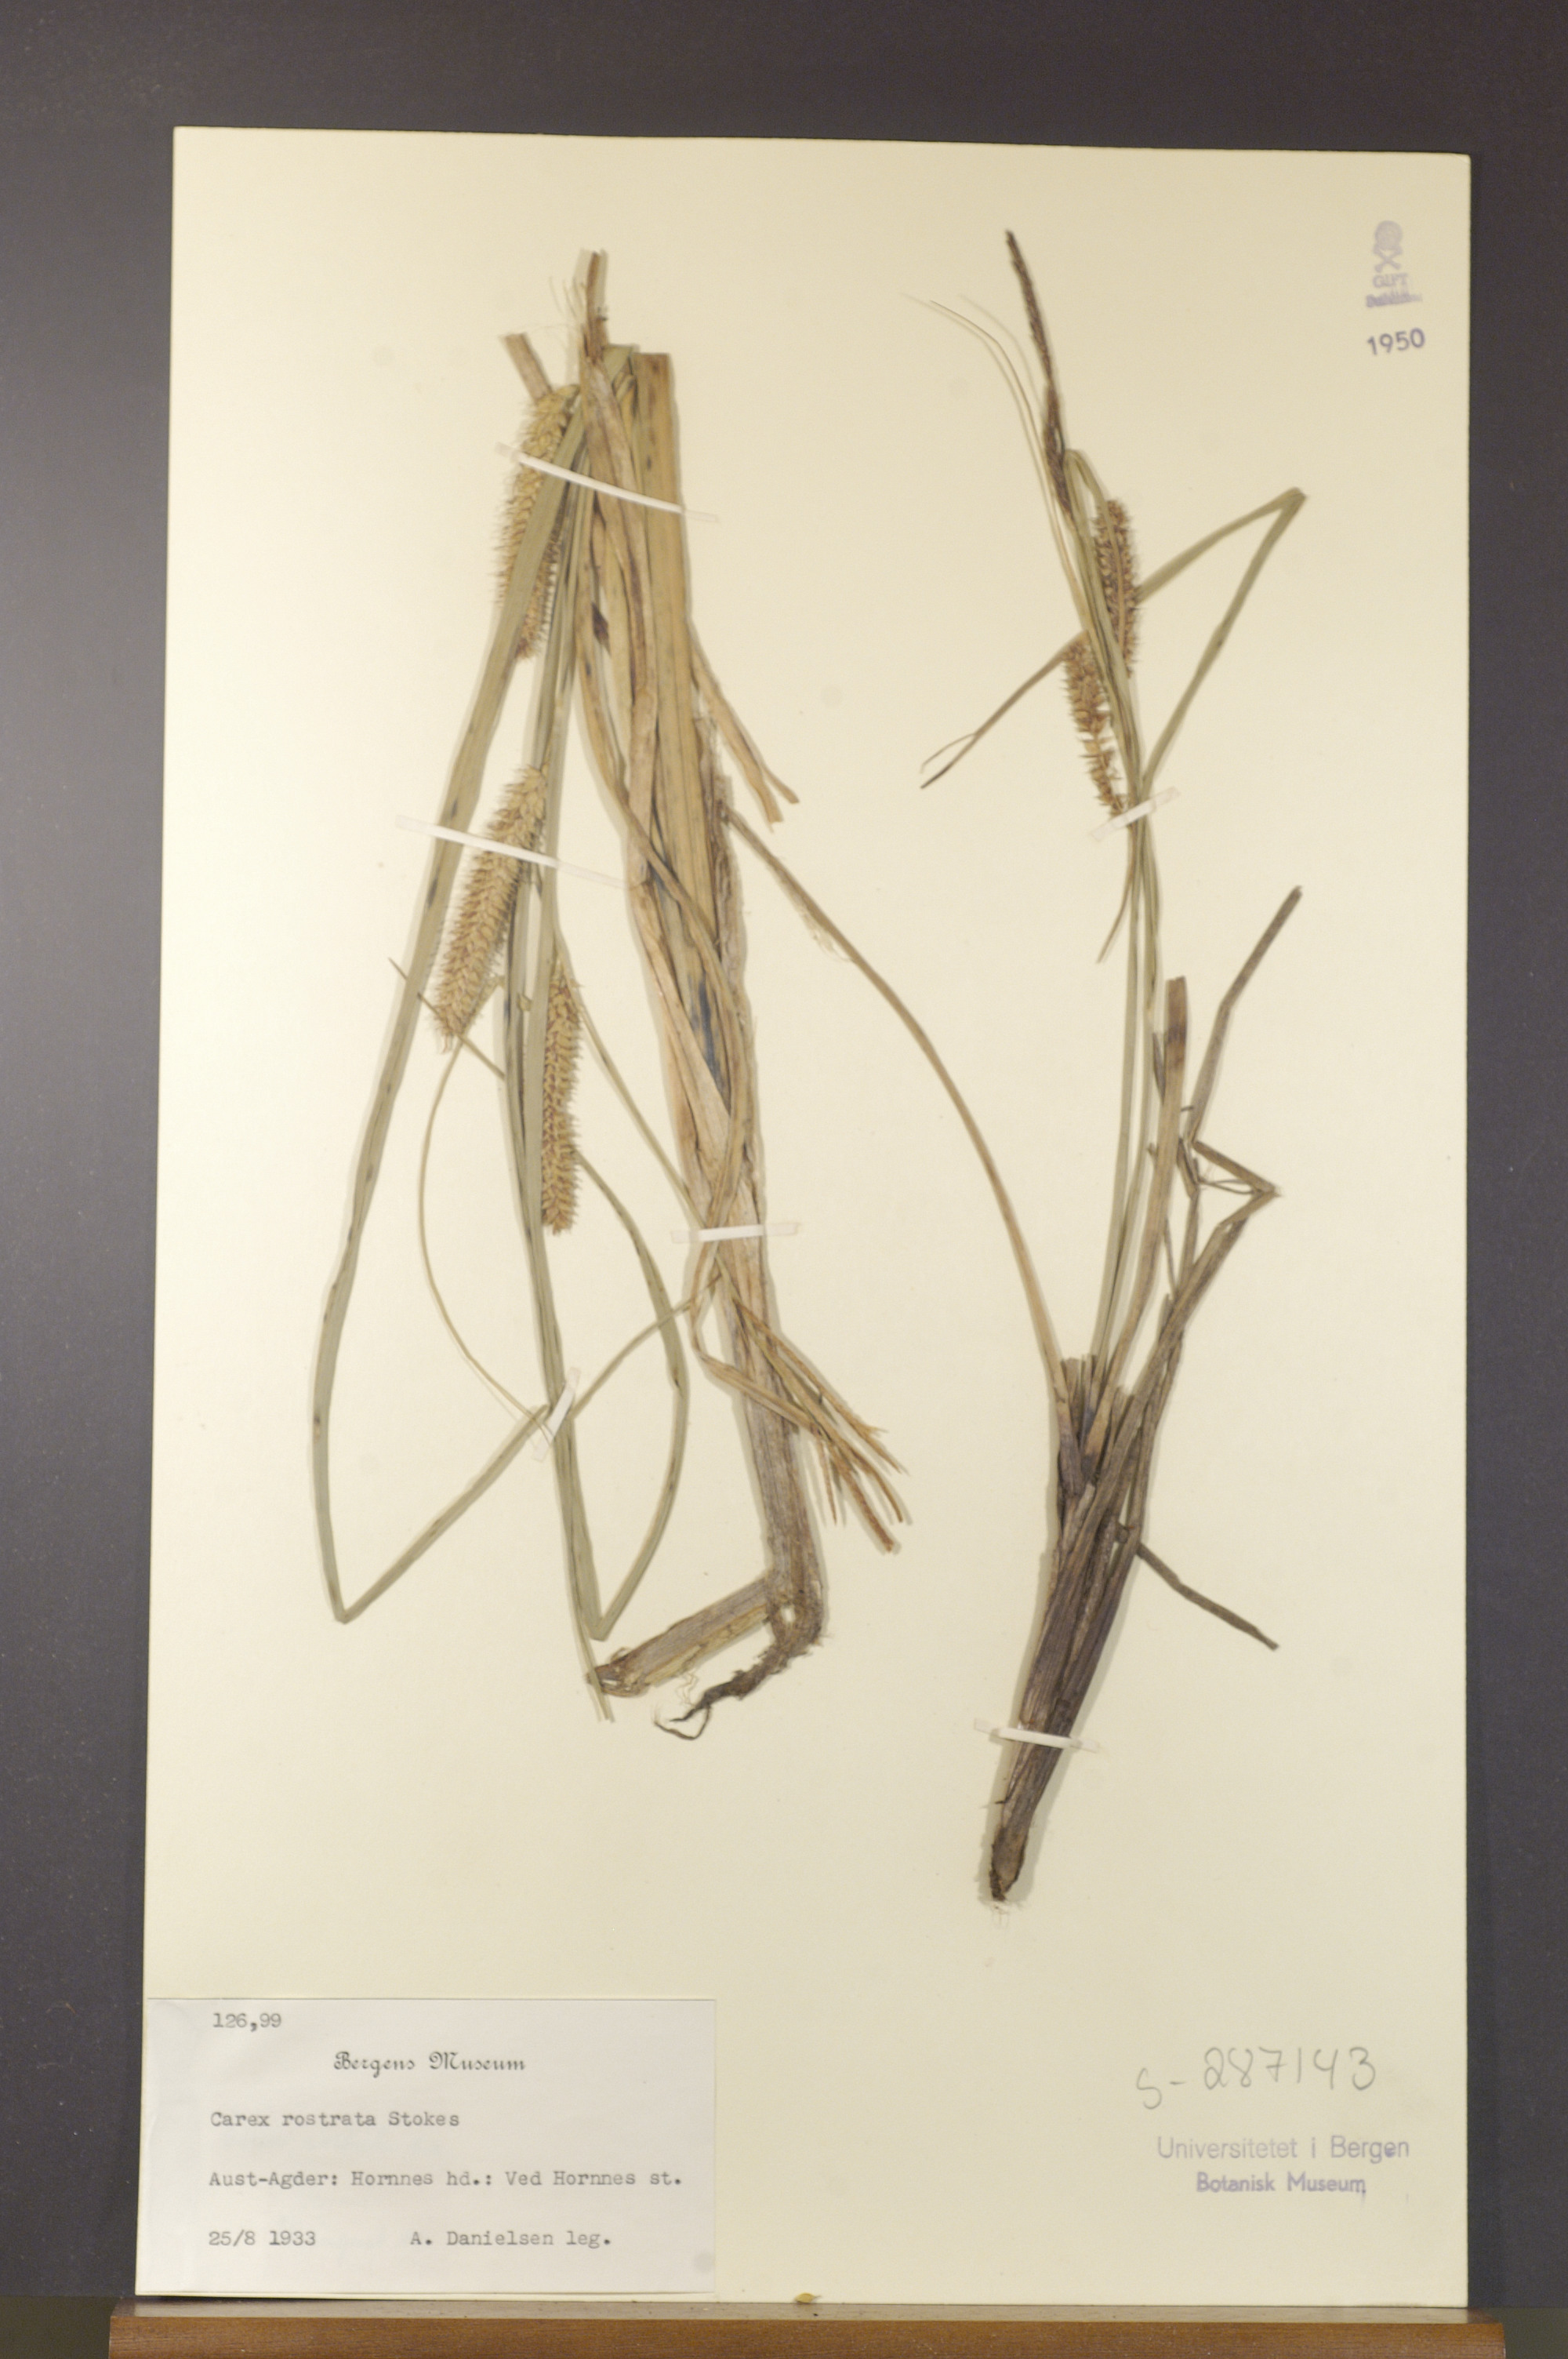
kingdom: Plantae
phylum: Tracheophyta
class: Liliopsida
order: Poales
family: Cyperaceae
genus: Carex
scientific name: Carex rostrata
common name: Bottle sedge
